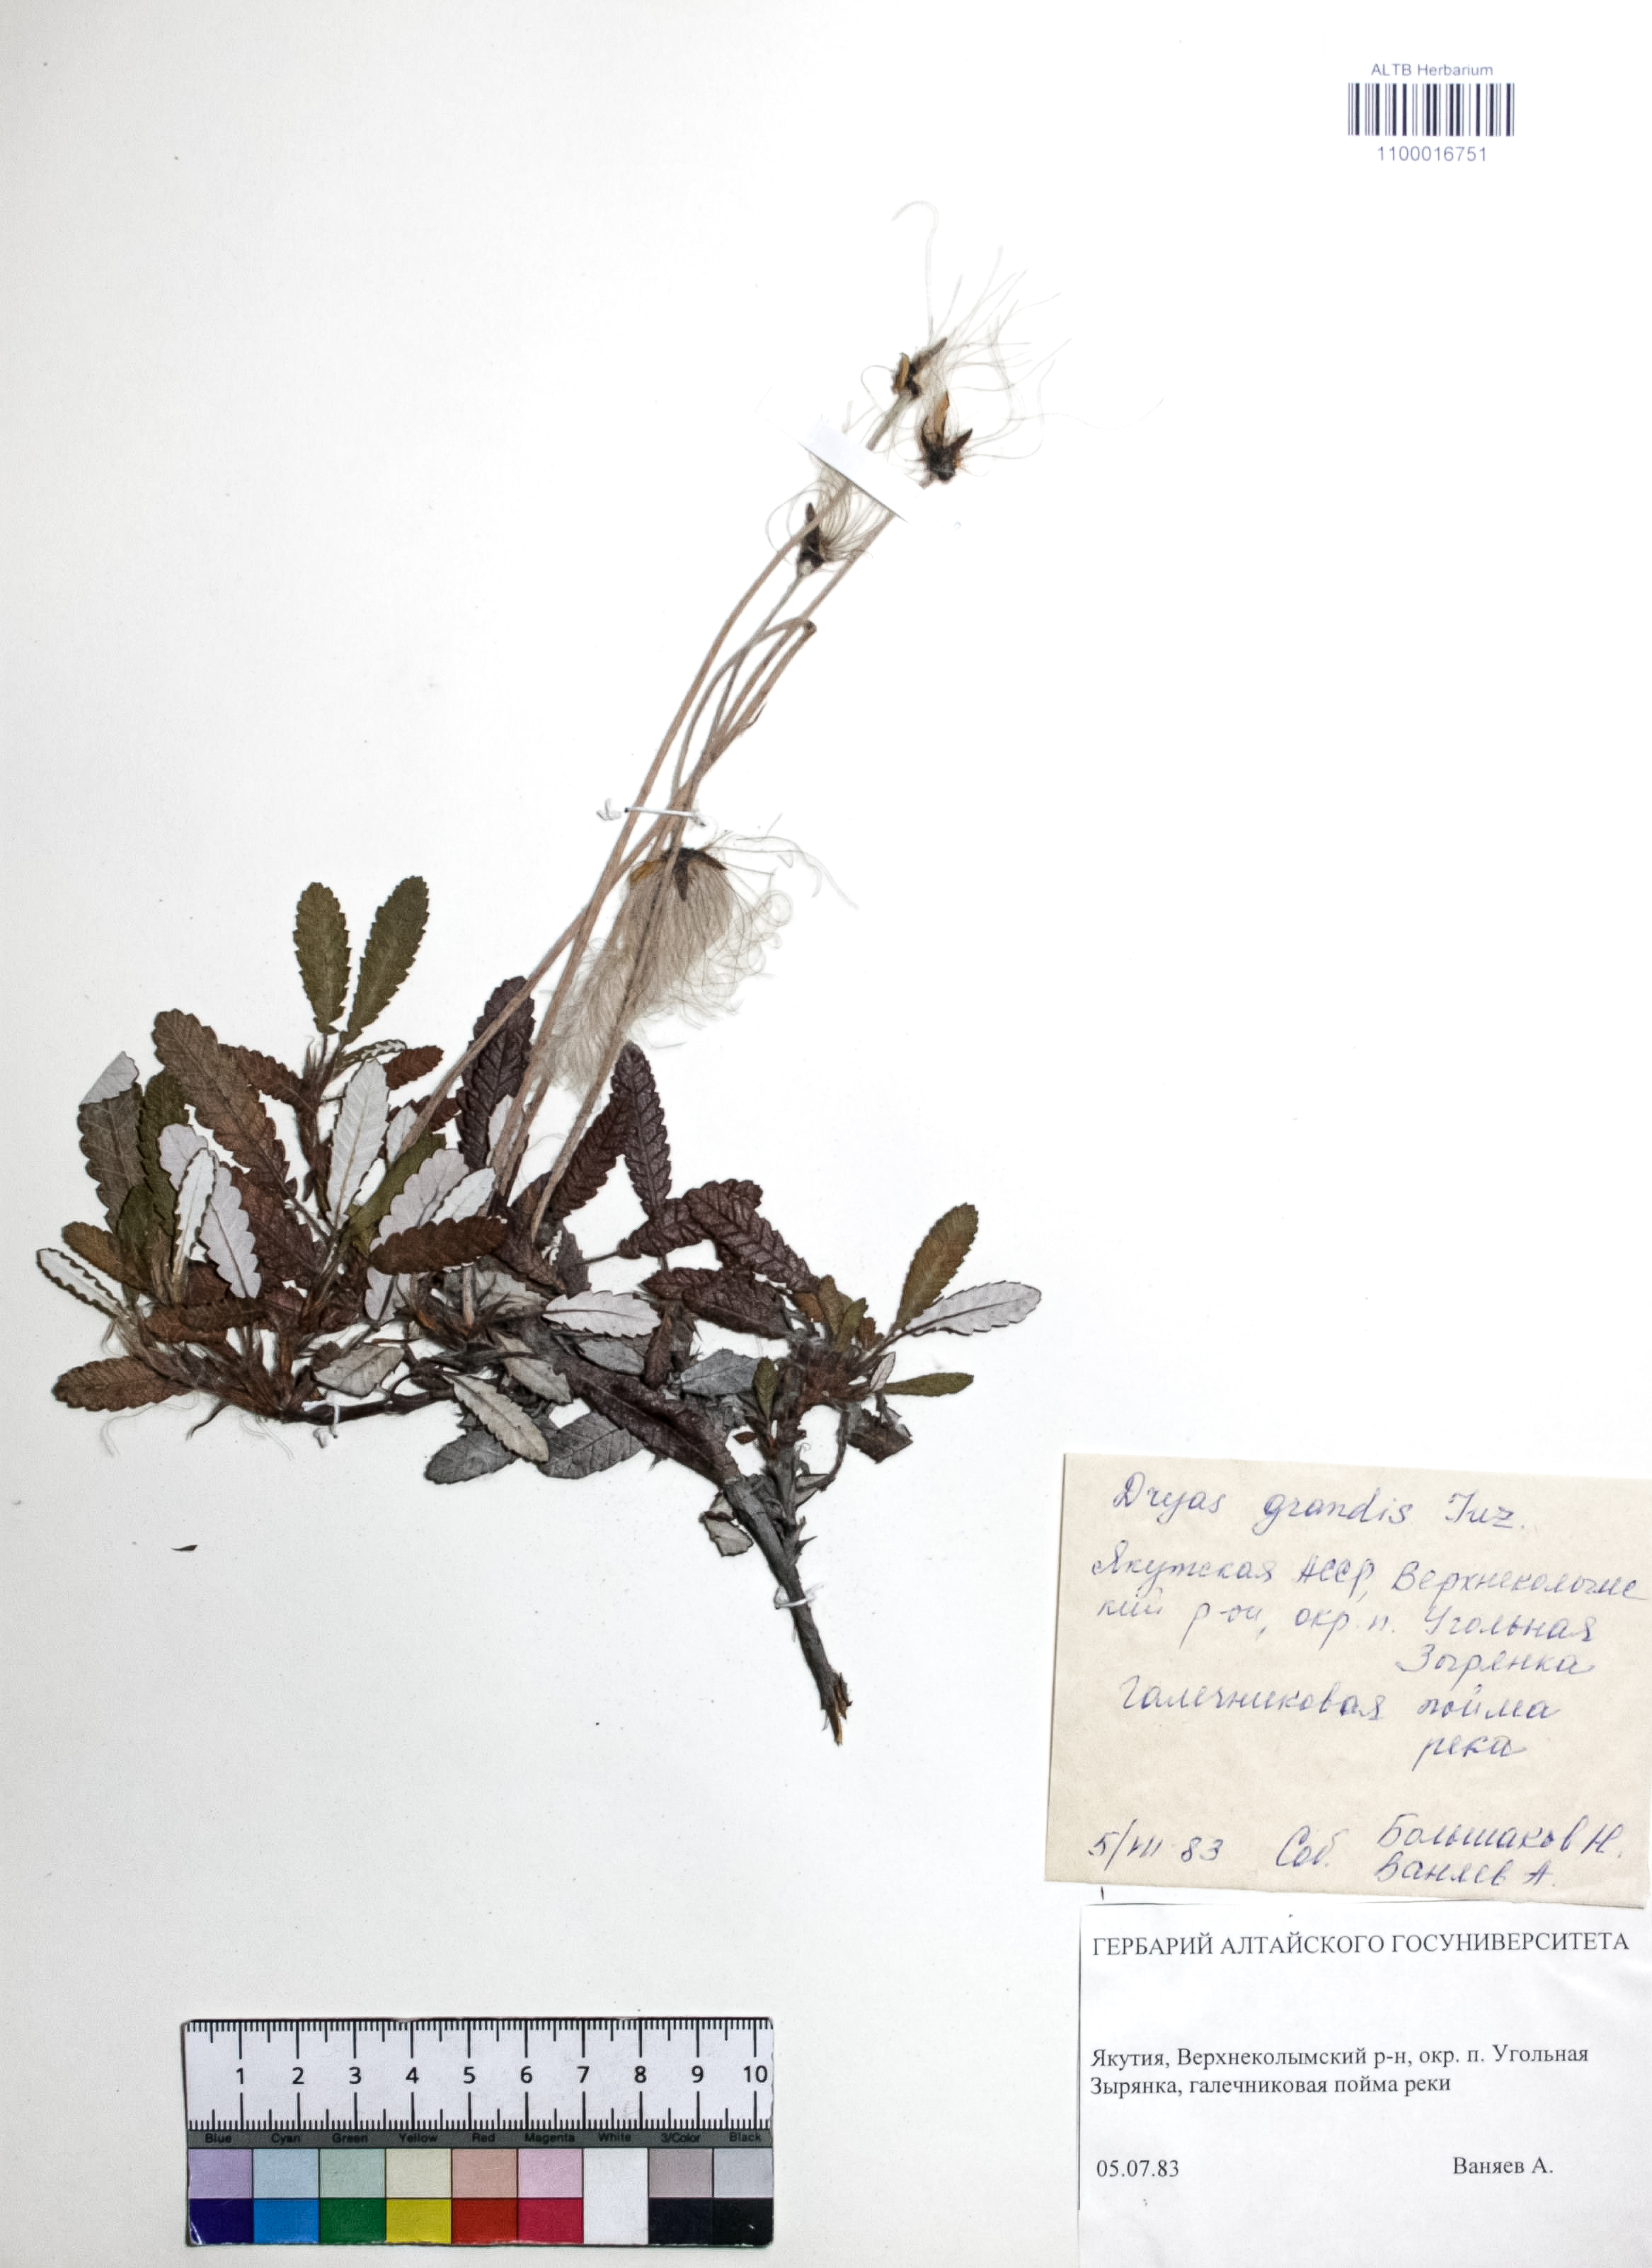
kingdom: Plantae
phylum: Tracheophyta
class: Magnoliopsida
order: Rosales
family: Rosaceae
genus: Dryas
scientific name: Dryas grandis
